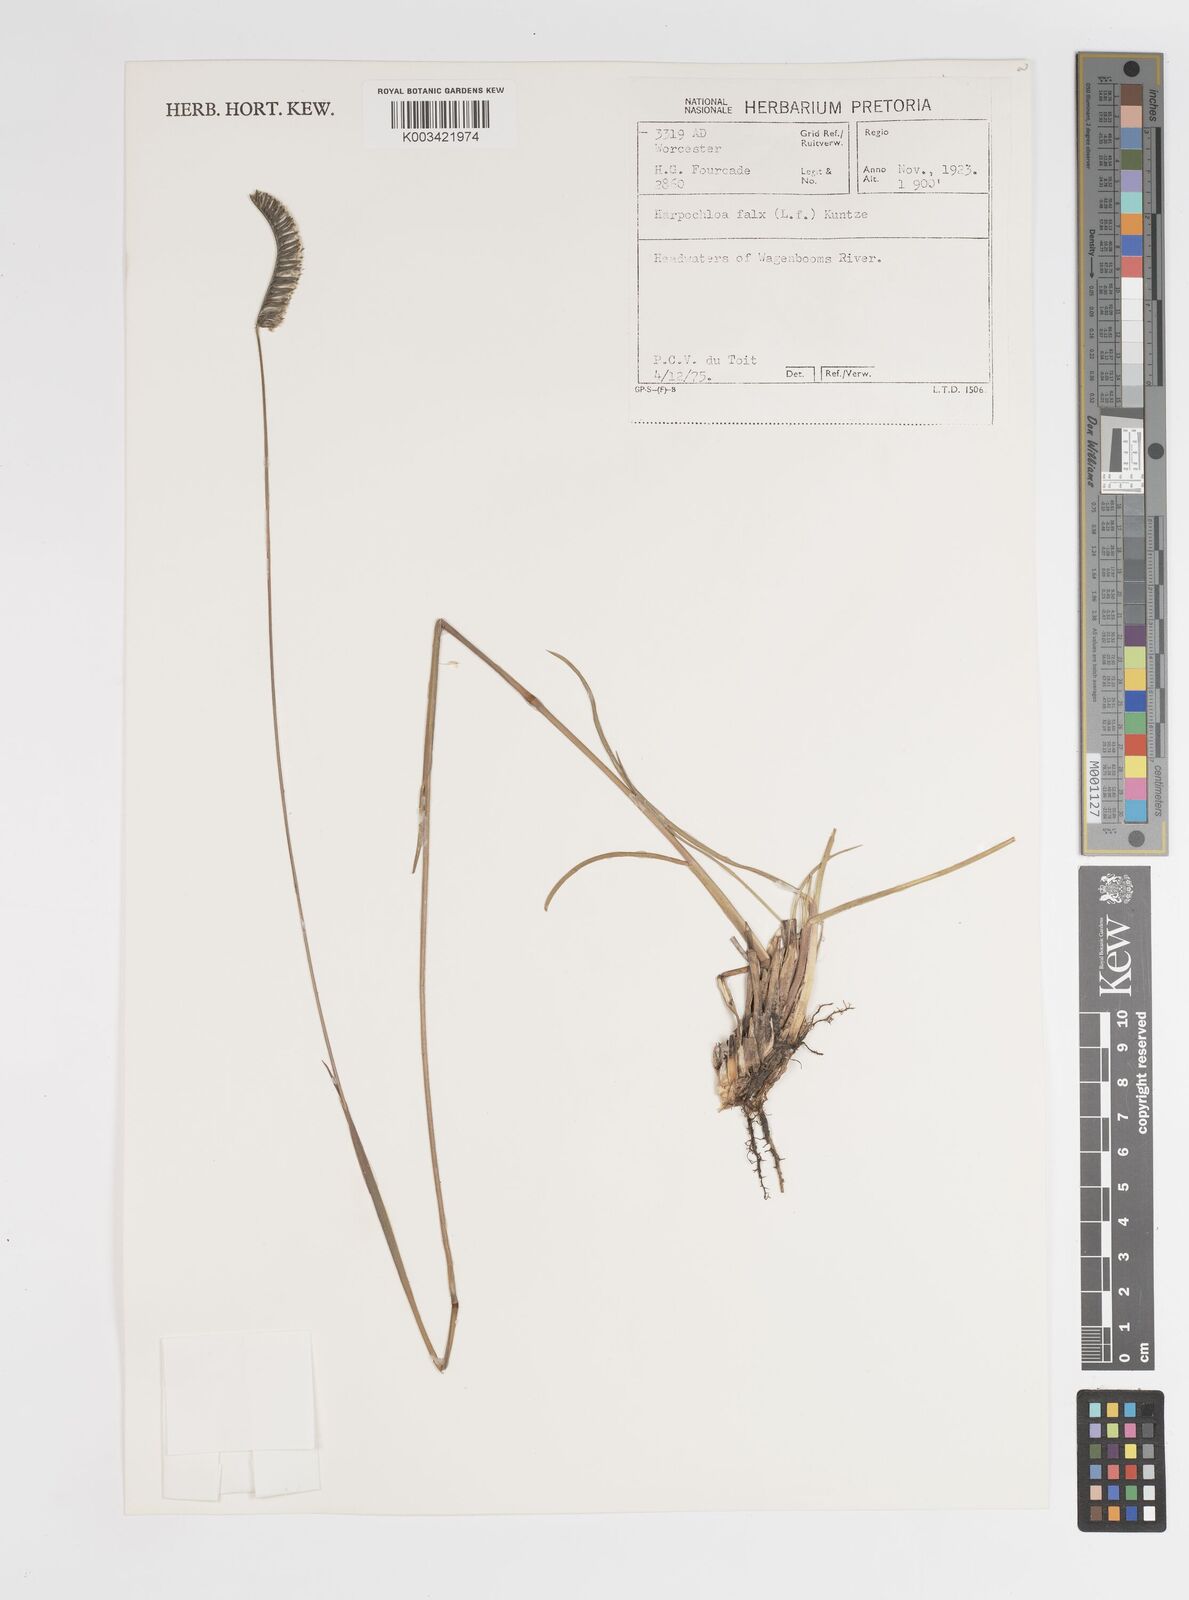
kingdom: Plantae
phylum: Tracheophyta
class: Liliopsida
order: Poales
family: Poaceae
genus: Harpochloa
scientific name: Harpochloa falx
